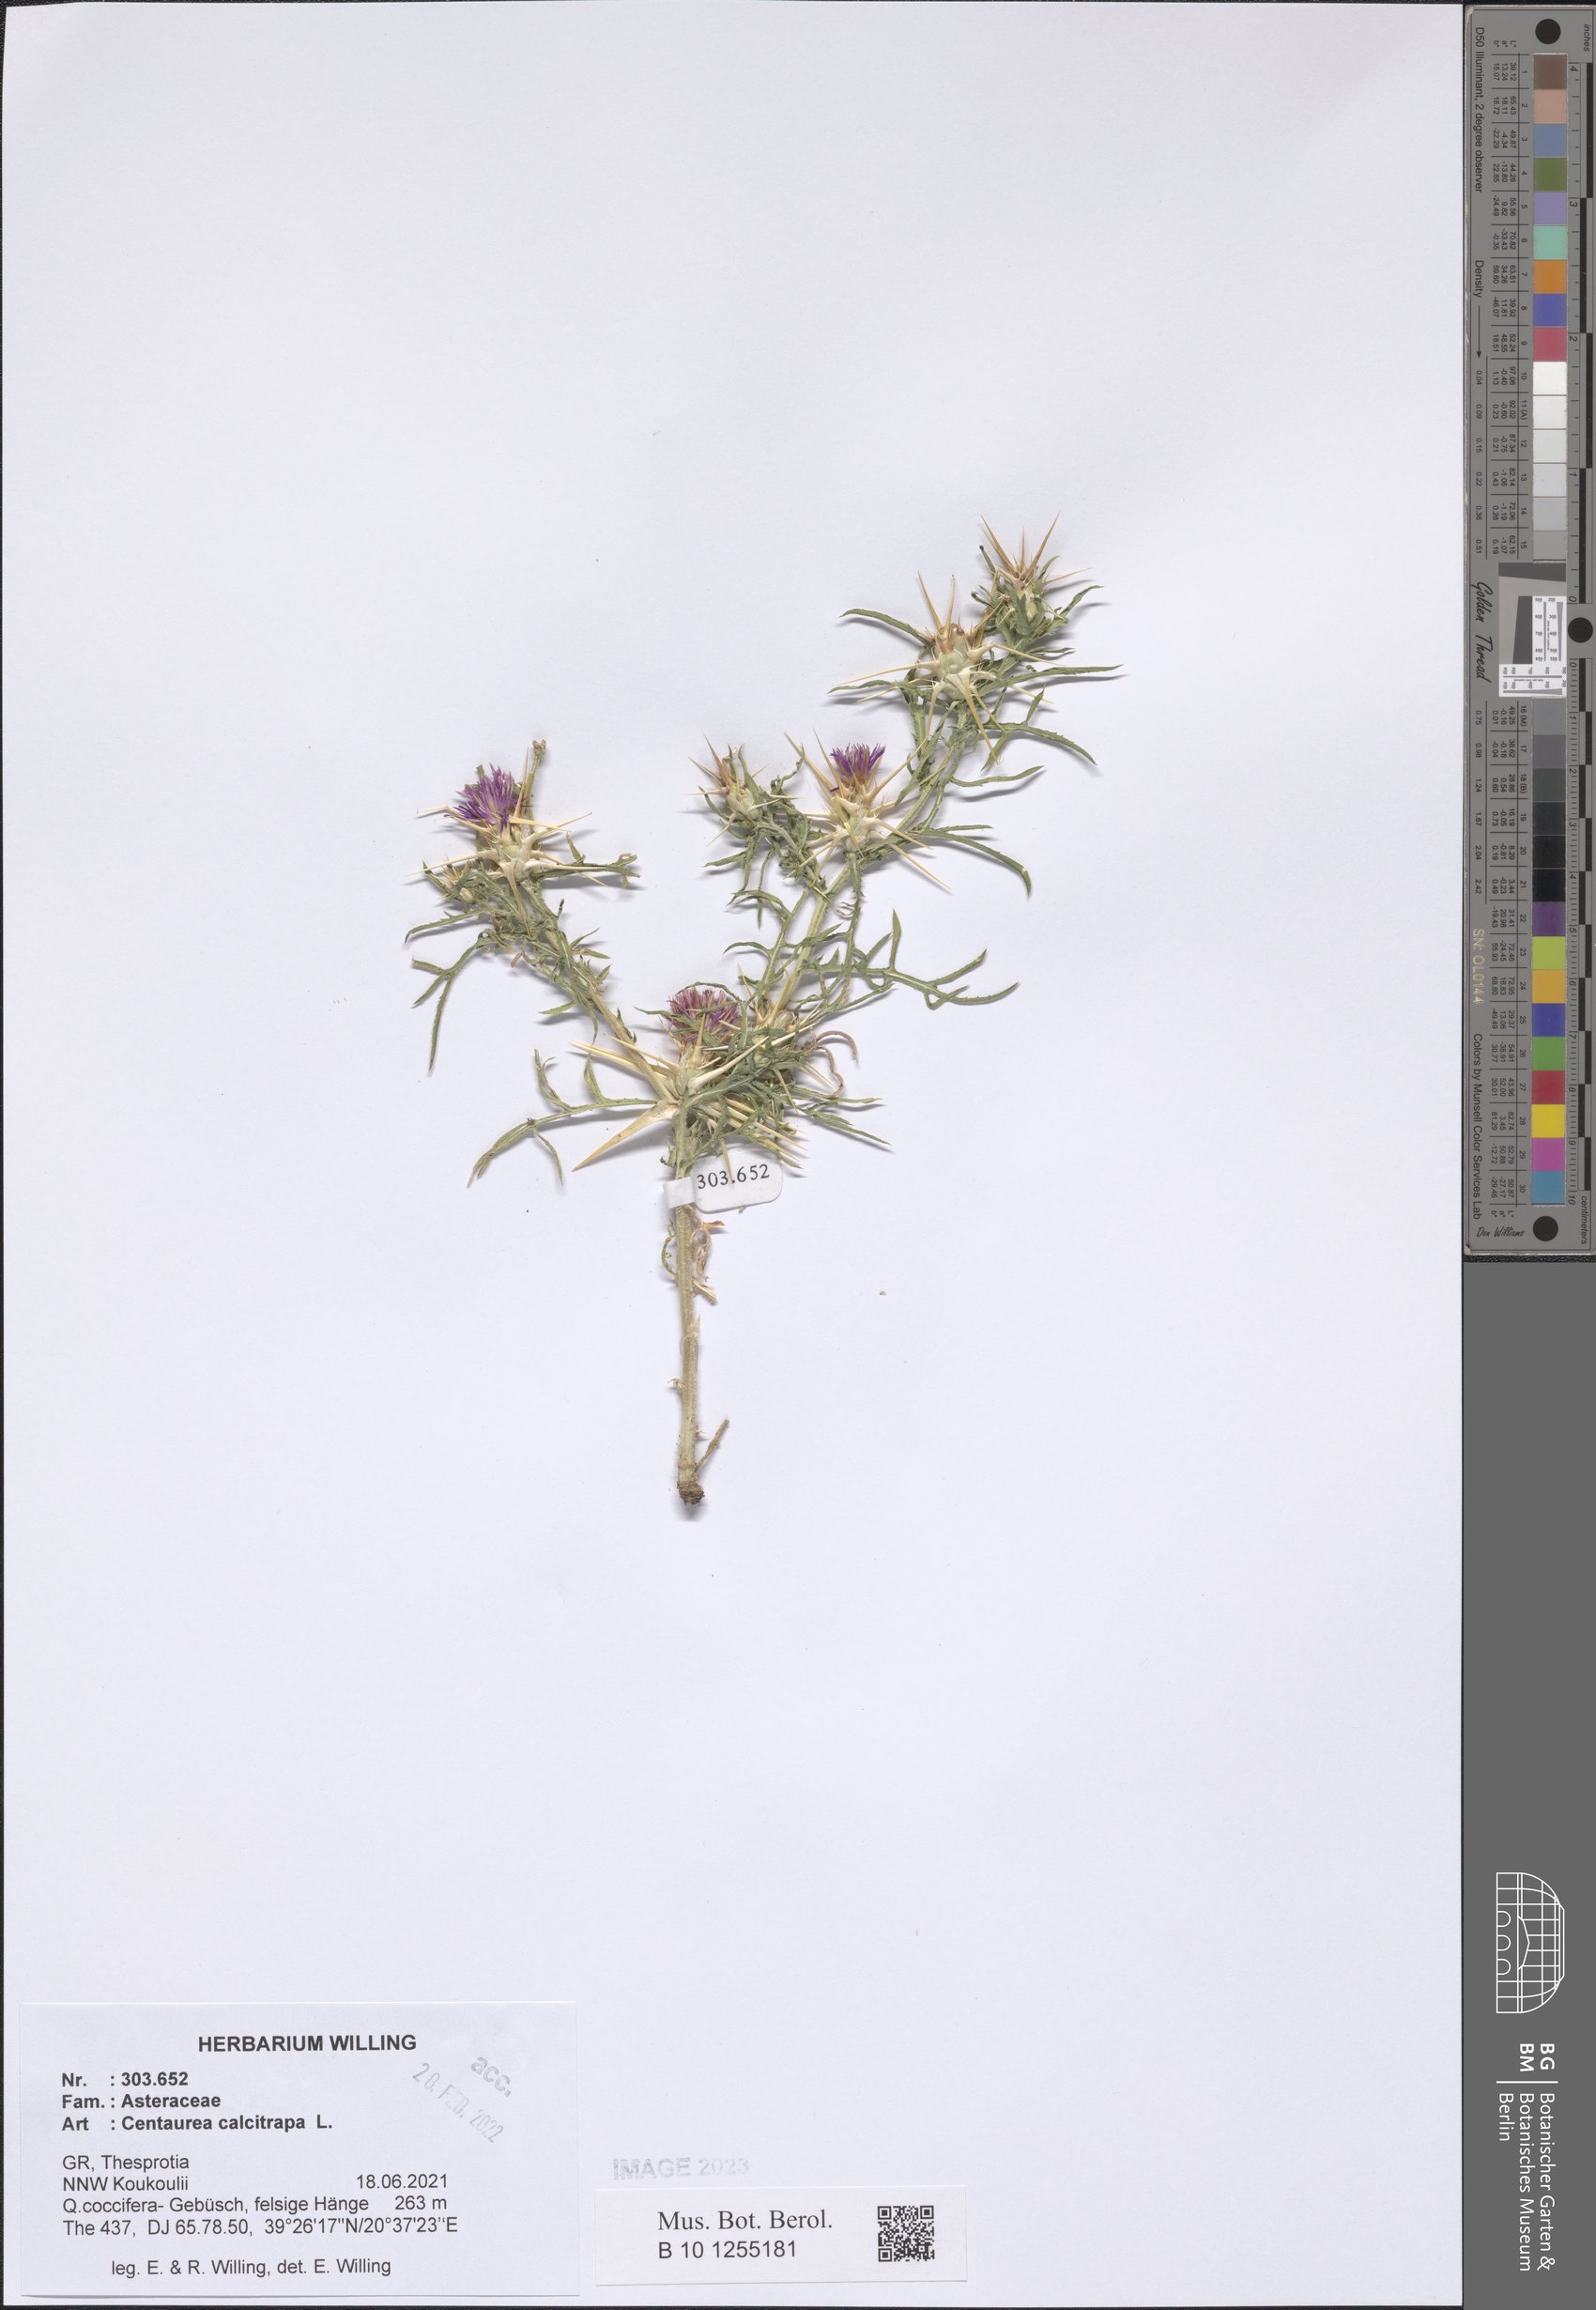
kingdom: Plantae
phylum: Tracheophyta
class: Magnoliopsida
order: Asterales
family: Asteraceae
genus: Centaurea
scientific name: Centaurea calcitrapa
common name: Red star-thistle
